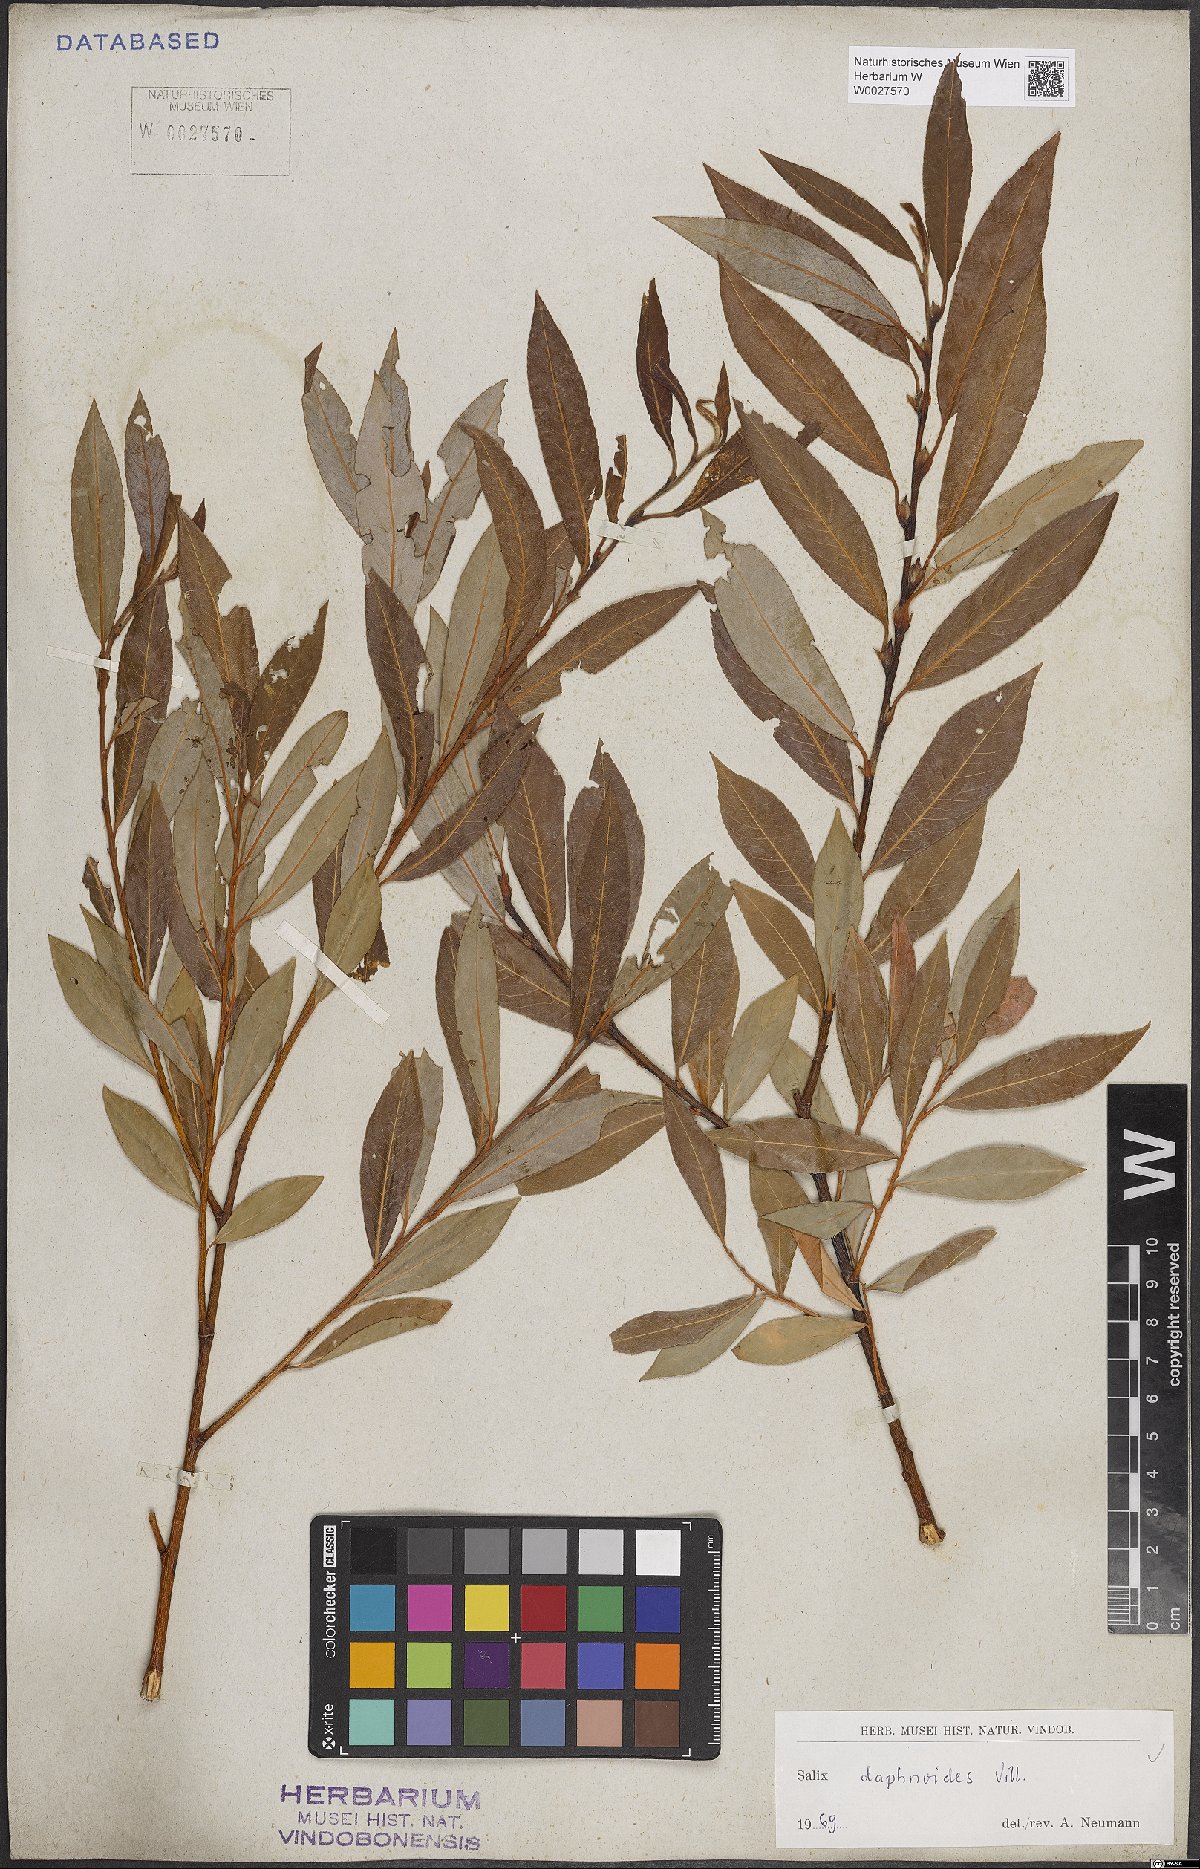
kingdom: Plantae
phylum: Tracheophyta
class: Magnoliopsida
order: Malpighiales
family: Salicaceae
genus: Salix
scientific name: Salix daphnoides
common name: European violet-willow
